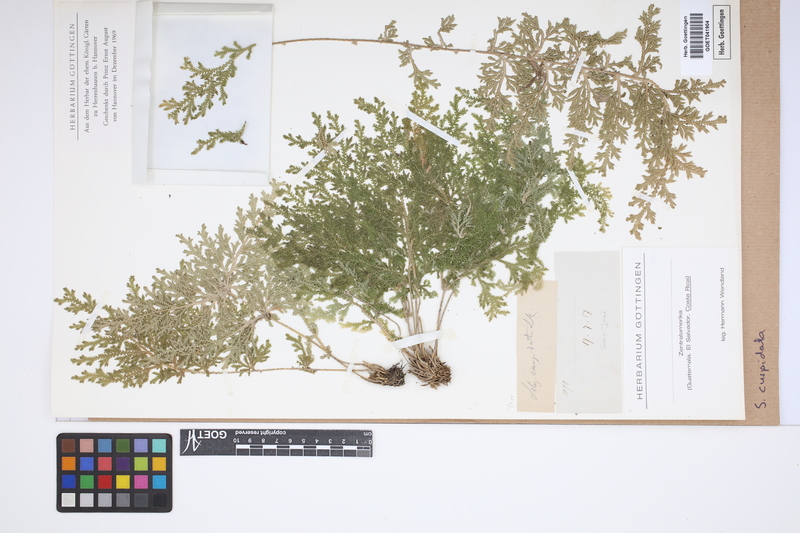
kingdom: Plantae
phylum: Tracheophyta
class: Lycopodiopsida
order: Selaginellales
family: Selaginellaceae
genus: Selaginella
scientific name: Selaginella pallescens
